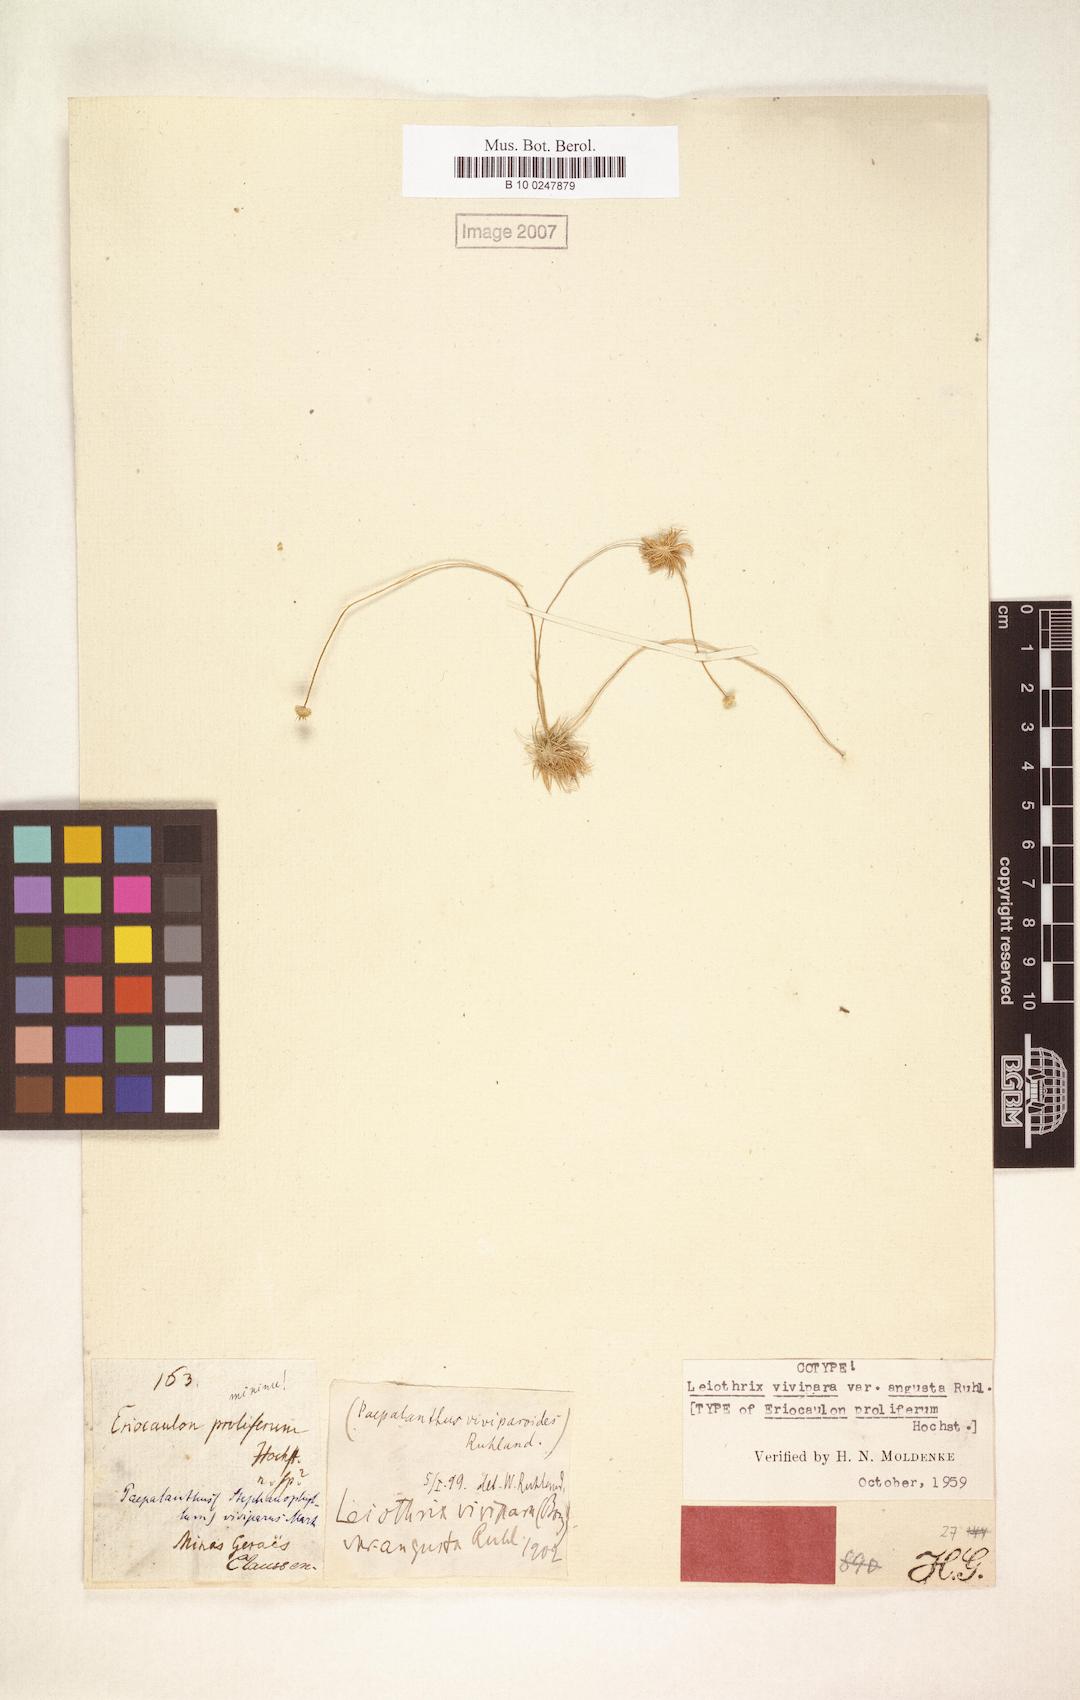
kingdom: Plantae
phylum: Tracheophyta
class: Liliopsida
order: Poales
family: Eriocaulaceae
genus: Leiothrix
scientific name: Leiothrix vivipara
